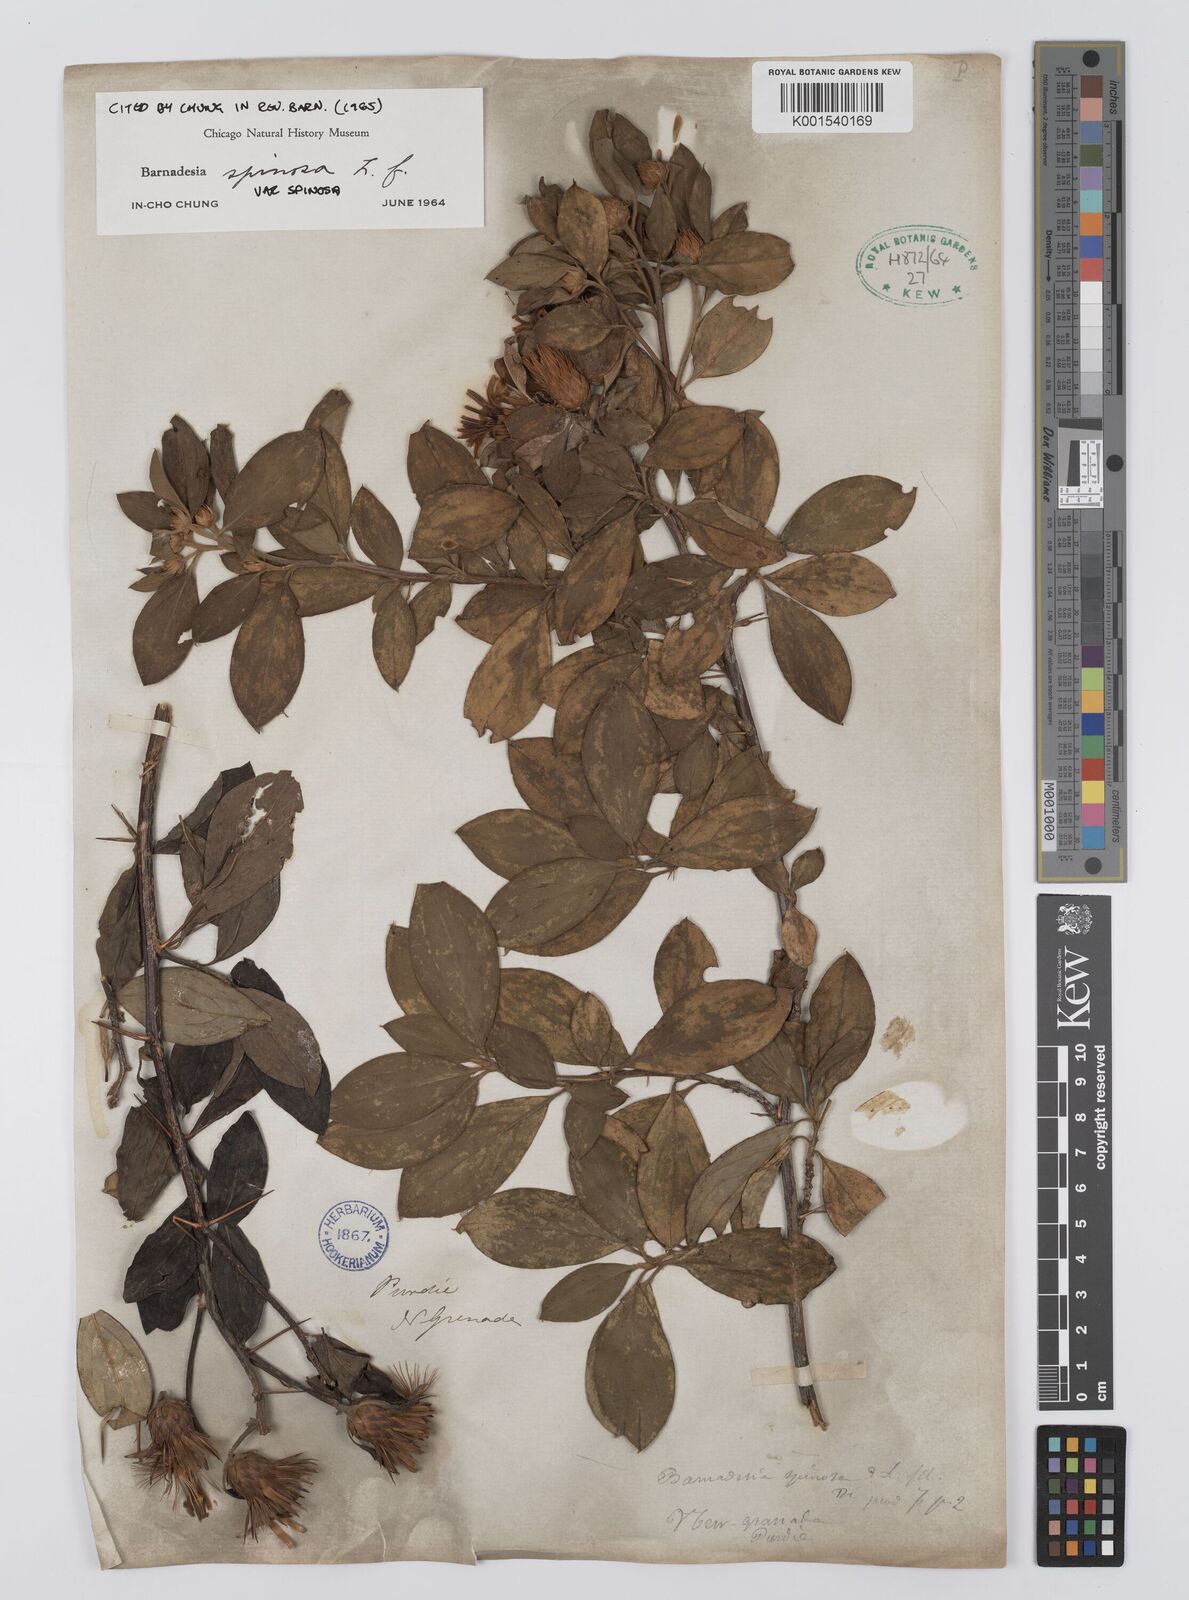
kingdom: Plantae
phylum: Tracheophyta
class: Magnoliopsida
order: Asterales
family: Asteraceae
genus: Barnadesia
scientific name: Barnadesia spinosa
